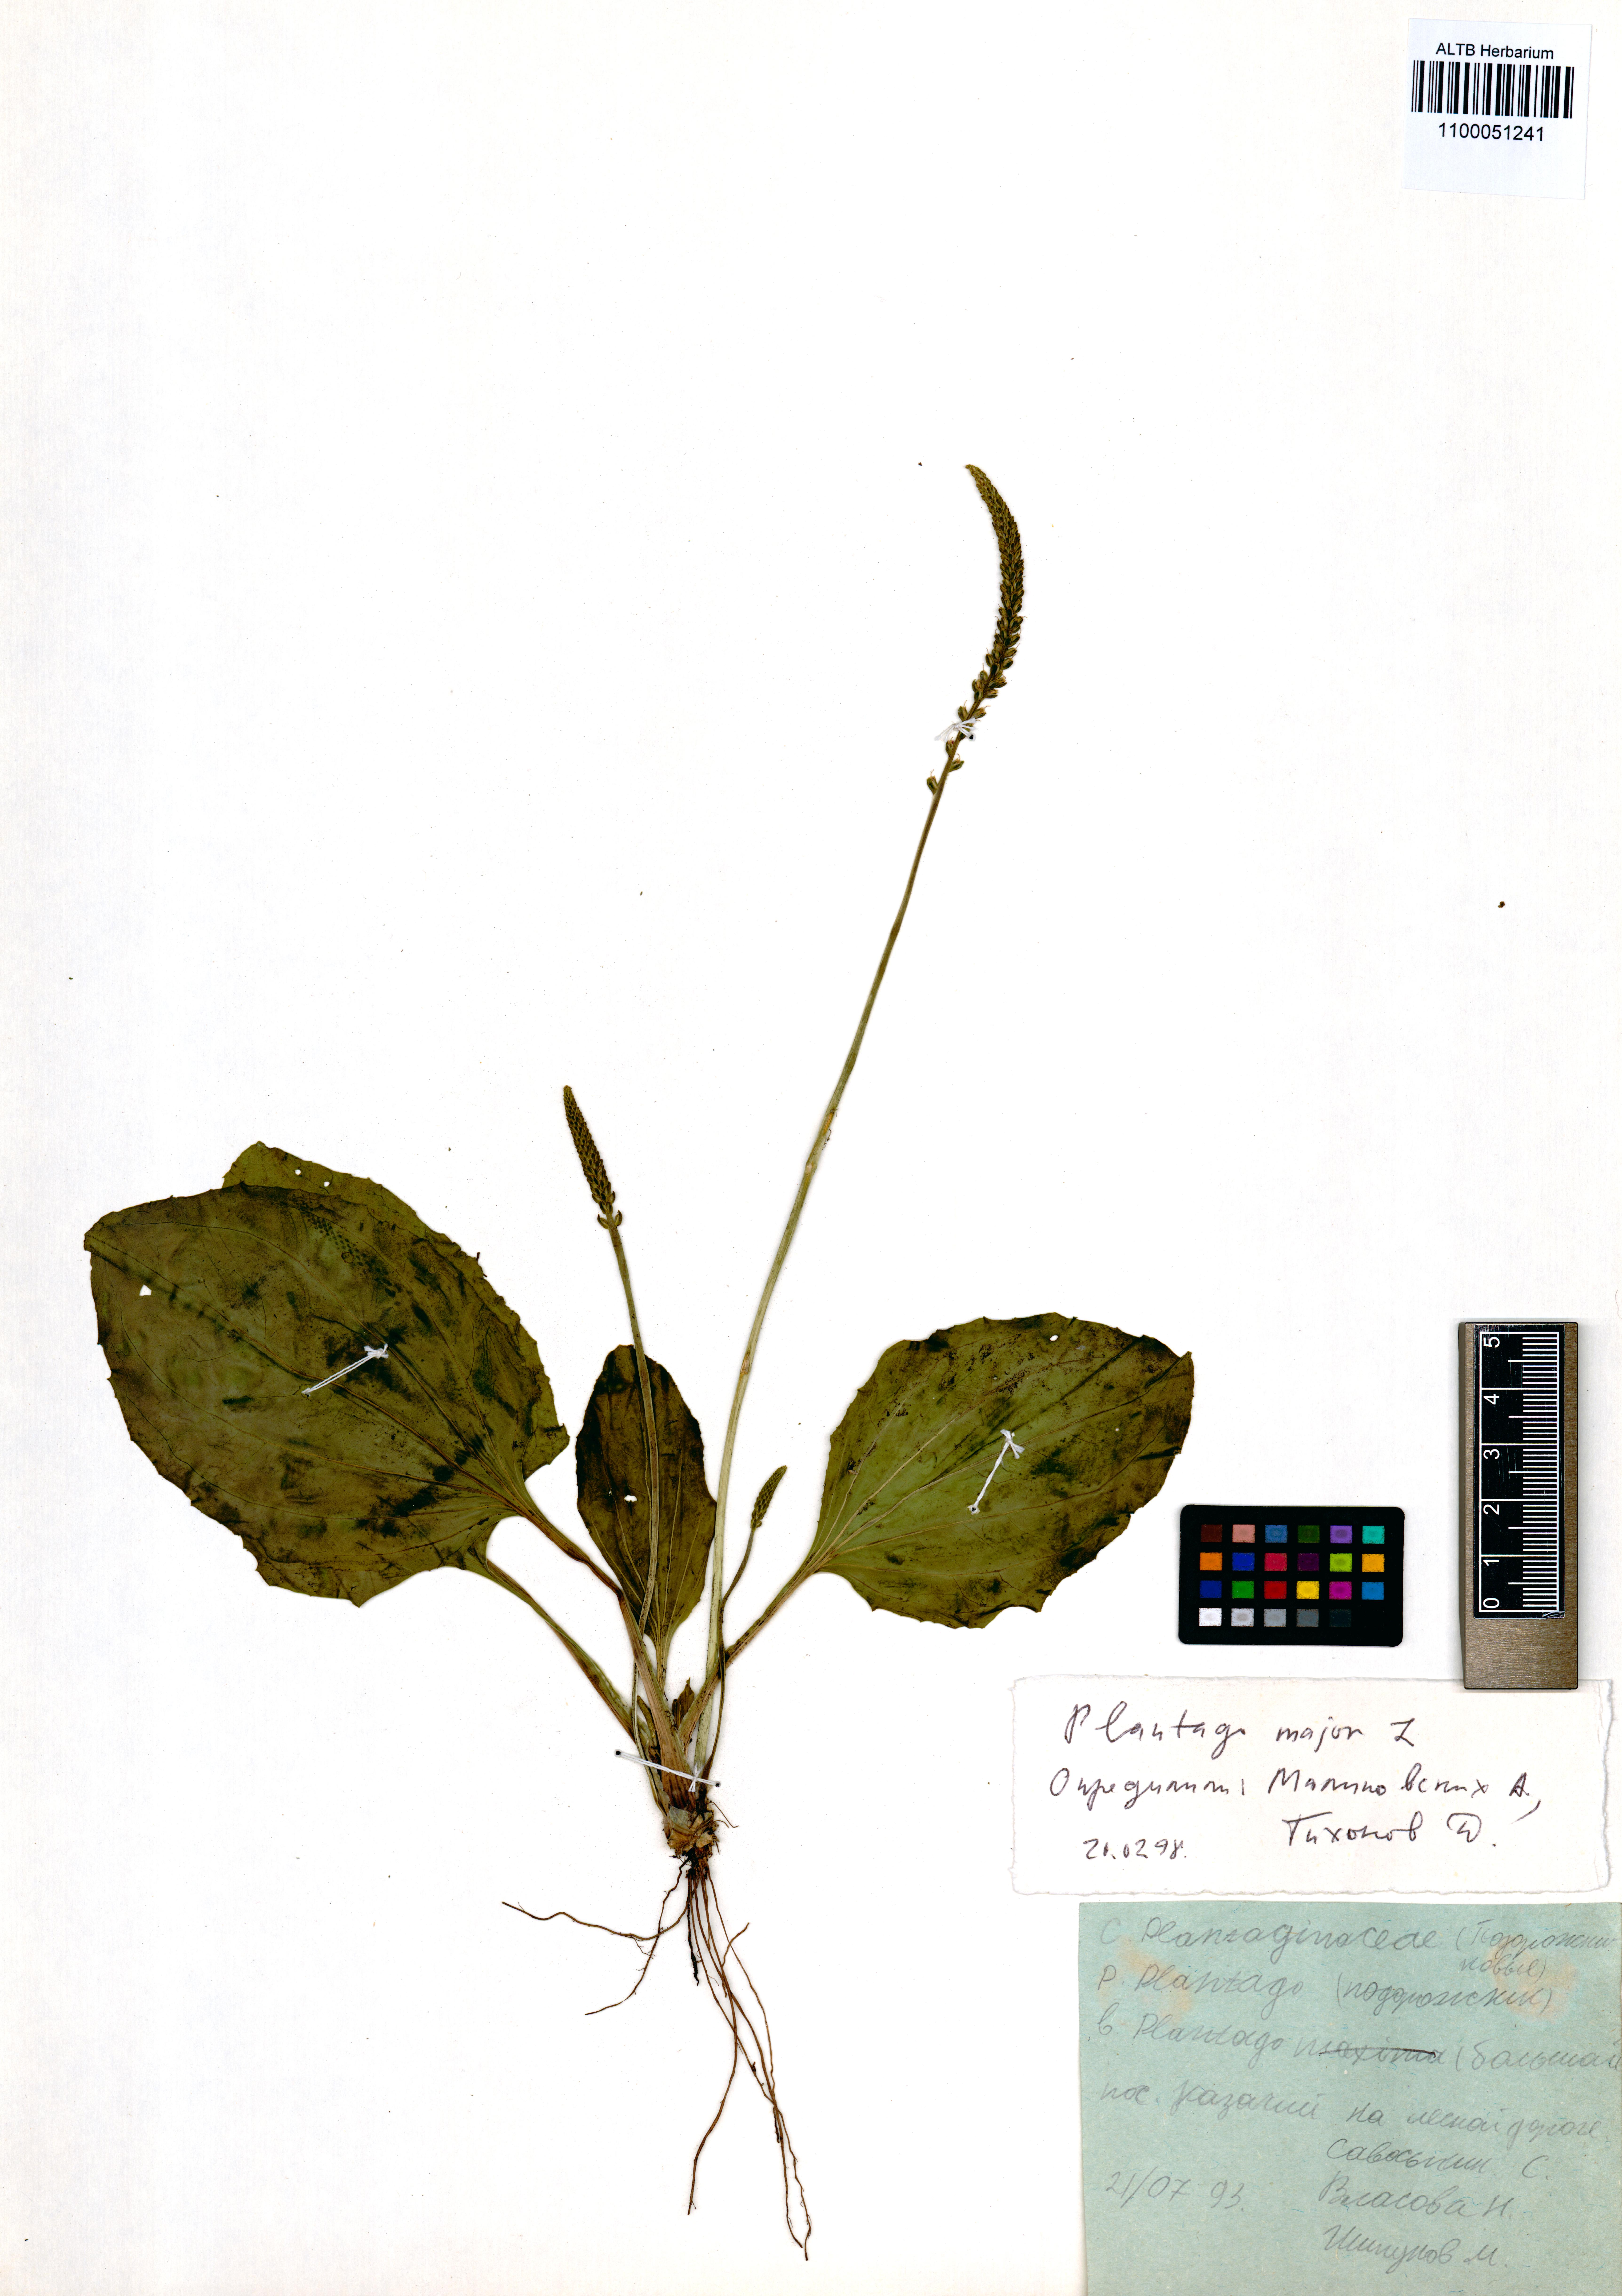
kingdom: Plantae
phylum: Tracheophyta
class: Magnoliopsida
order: Lamiales
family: Plantaginaceae
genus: Plantago
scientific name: Plantago major
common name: Common plantain
